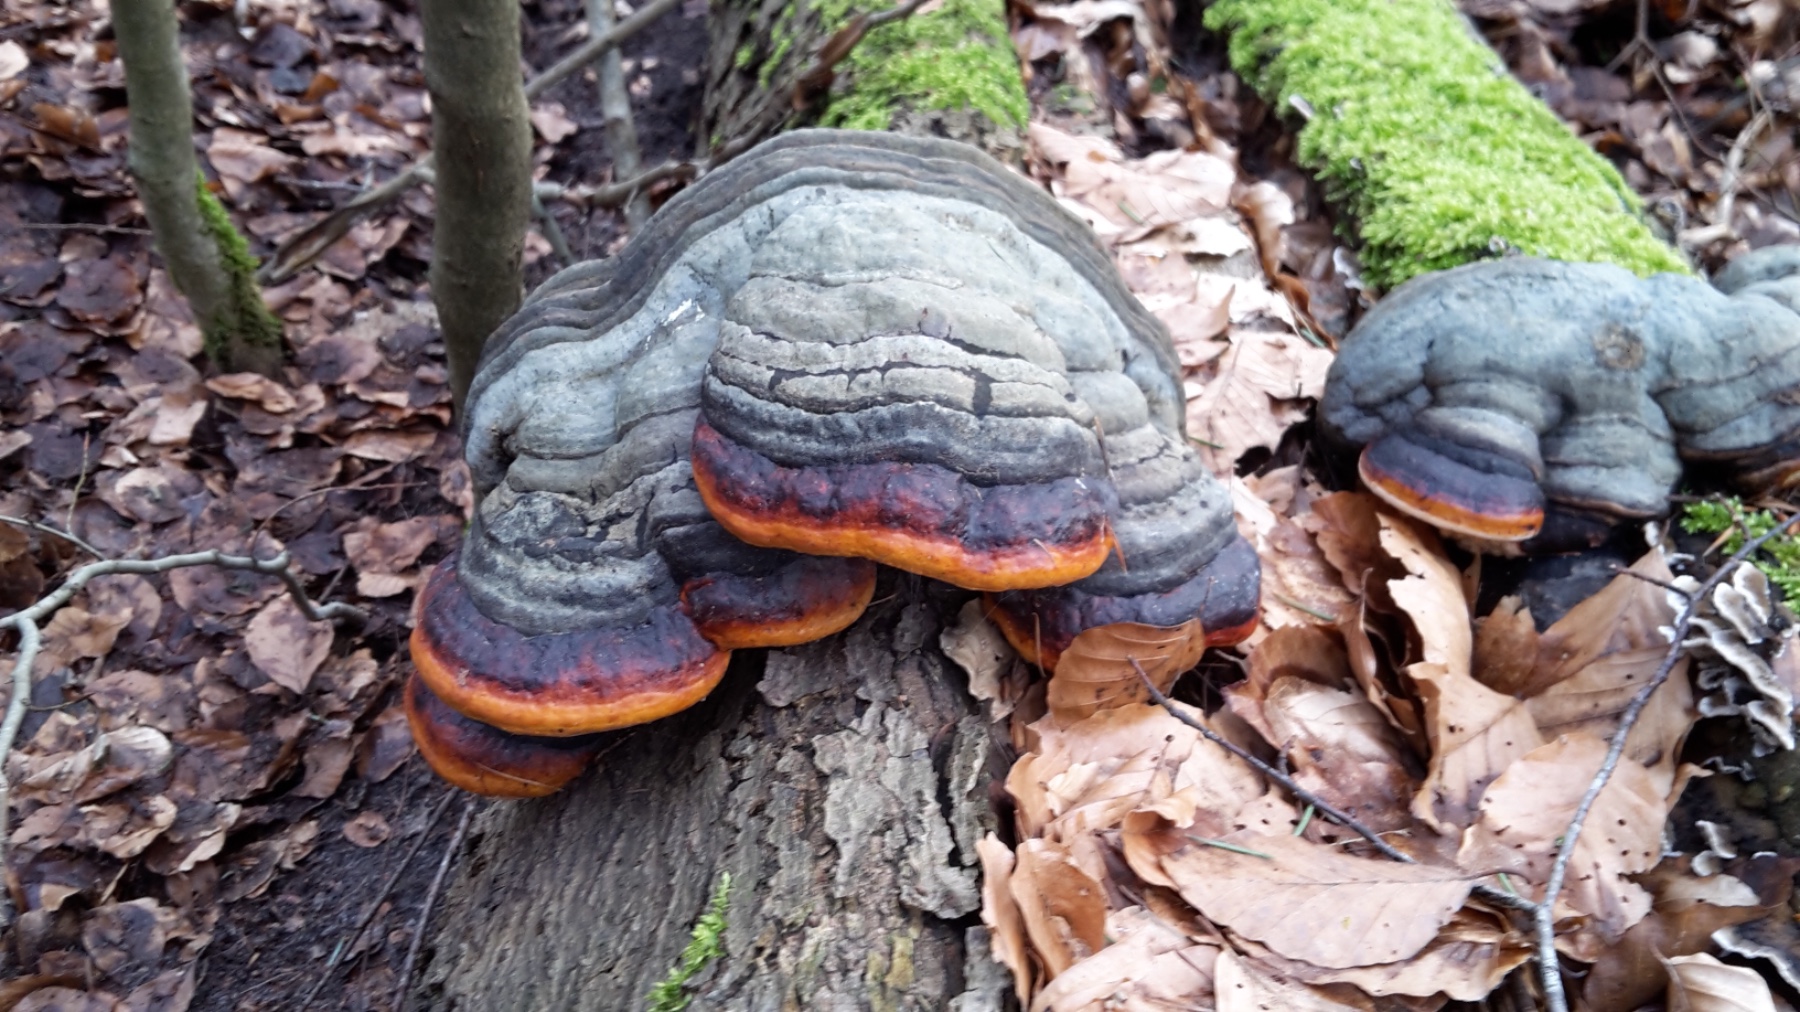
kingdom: Fungi
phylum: Basidiomycota
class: Agaricomycetes
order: Polyporales
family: Fomitopsidaceae
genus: Fomitopsis
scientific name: Fomitopsis pinicola
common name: randbæltet hovporesvamp
